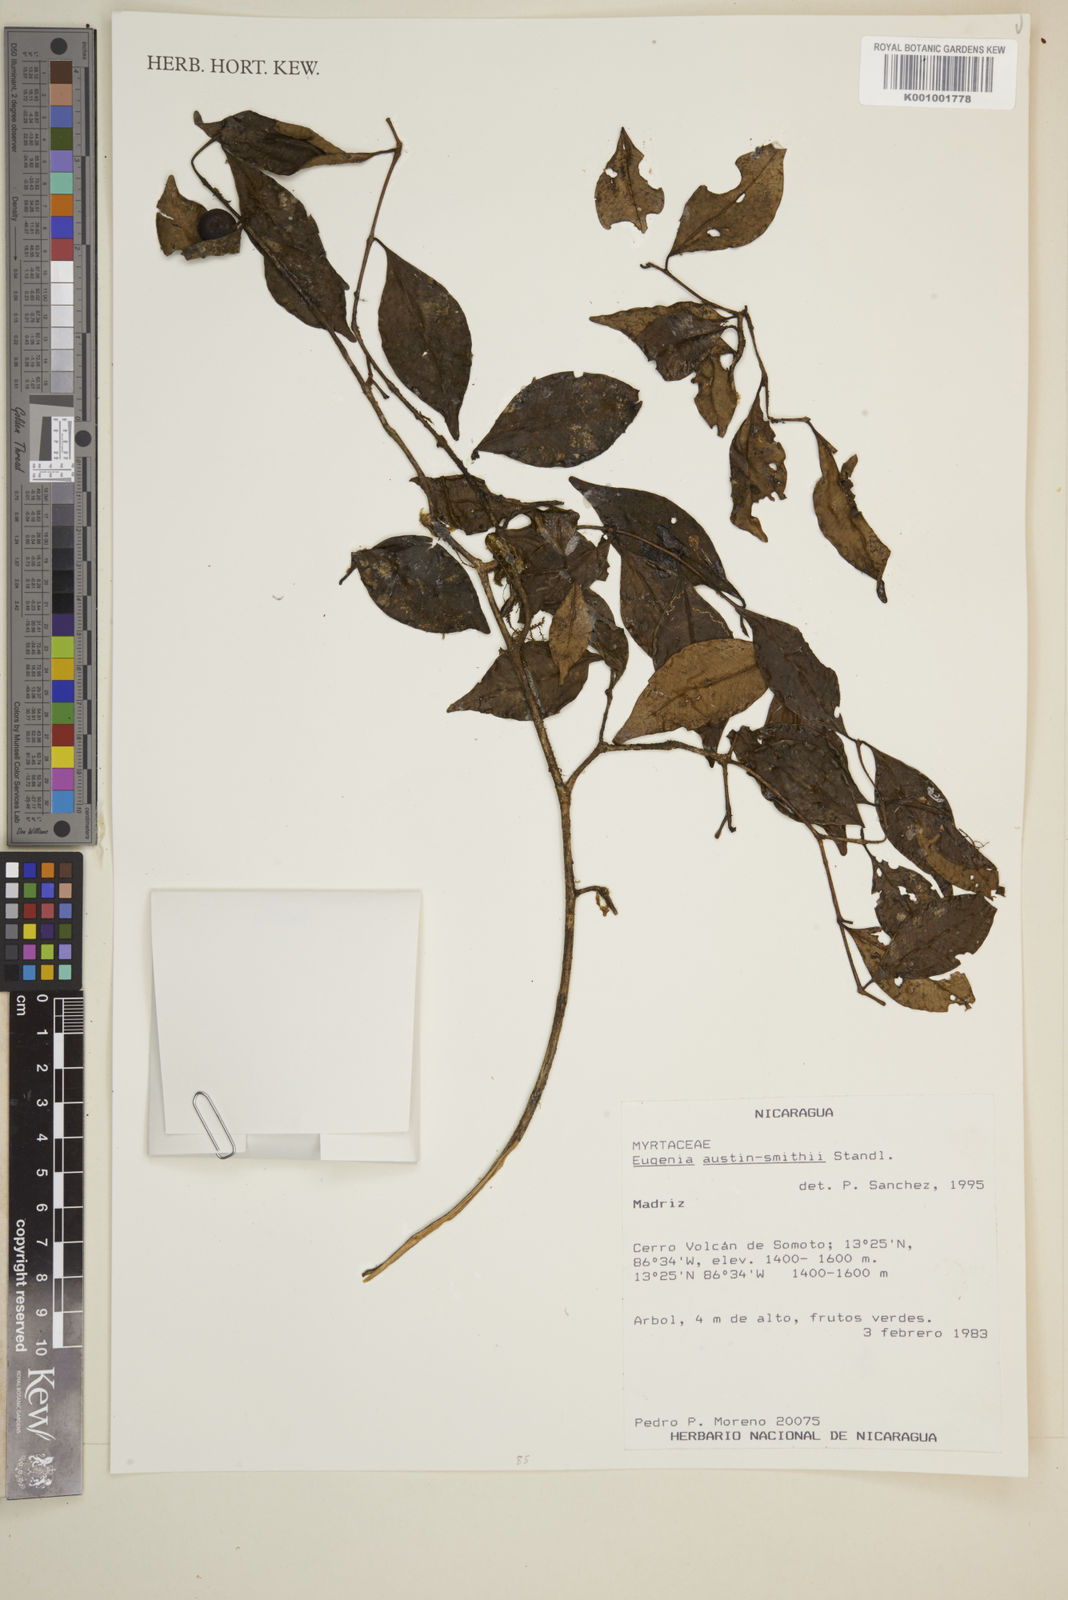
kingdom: Plantae
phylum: Tracheophyta
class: Magnoliopsida
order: Myrtales
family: Myrtaceae
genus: Eugenia
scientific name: Eugenia austin-smithii
